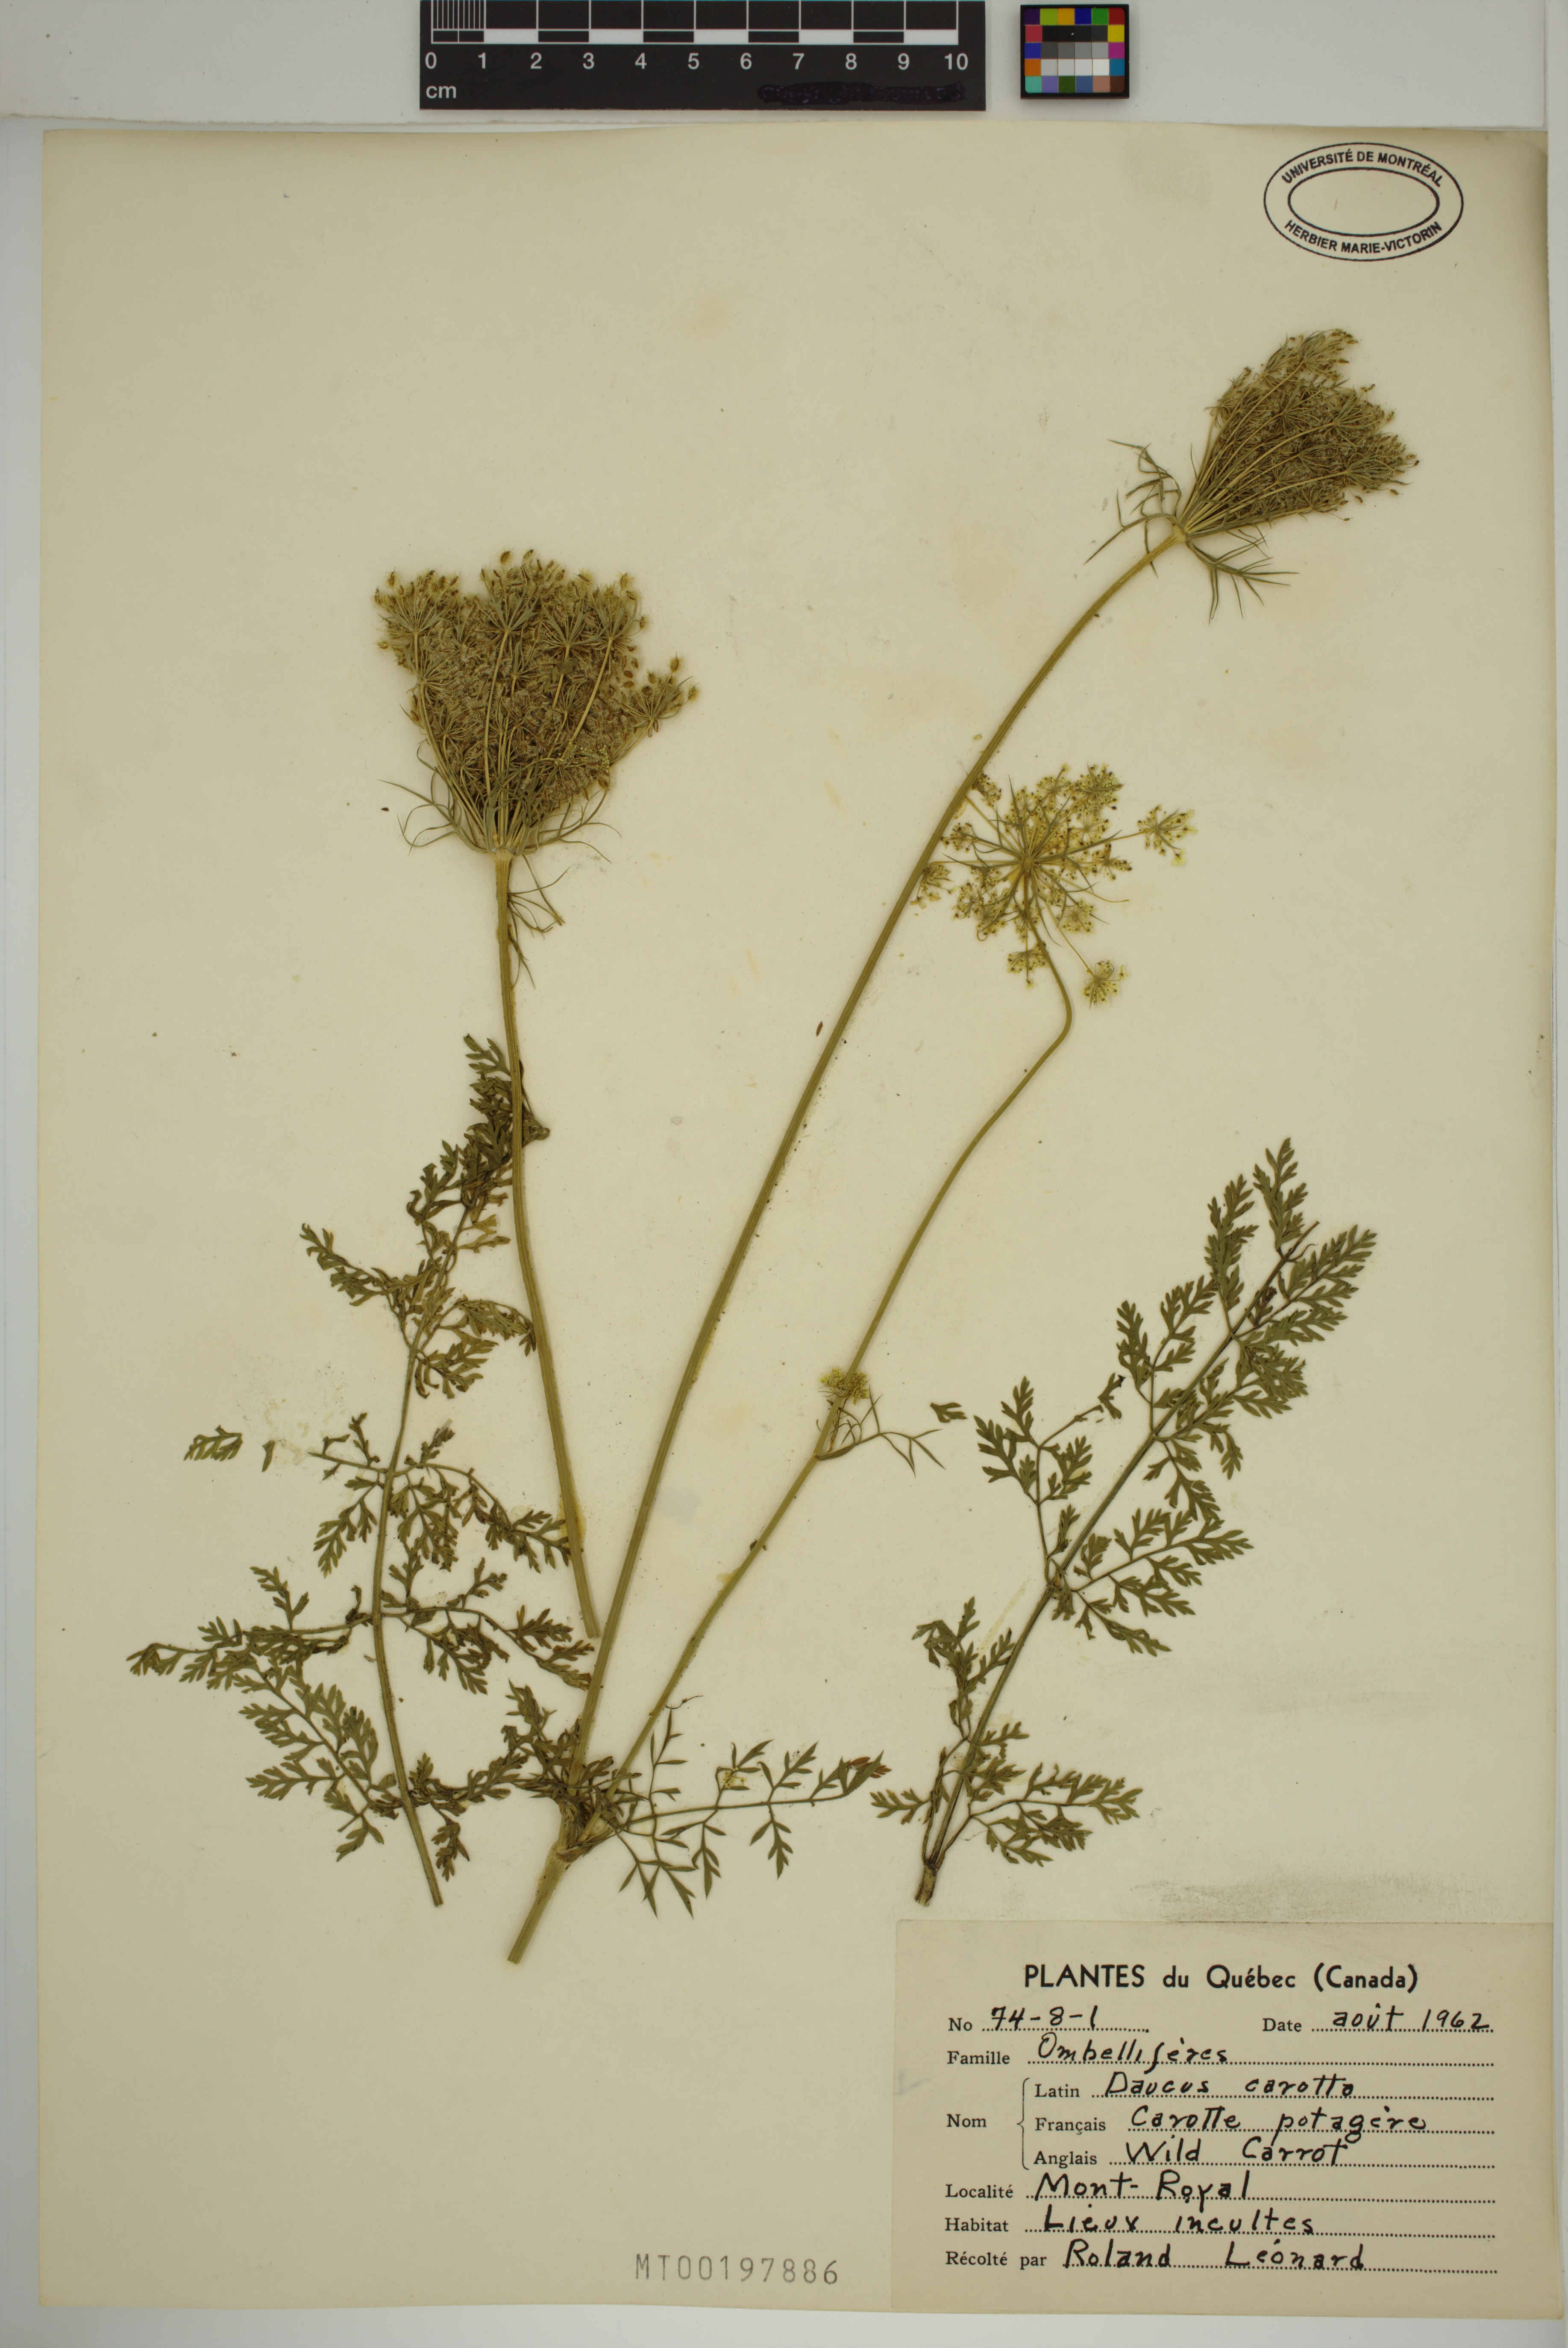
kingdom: Plantae
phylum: Tracheophyta
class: Magnoliopsida
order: Apiales
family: Apiaceae
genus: Daucus
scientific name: Daucus carota
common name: Wild carrot
